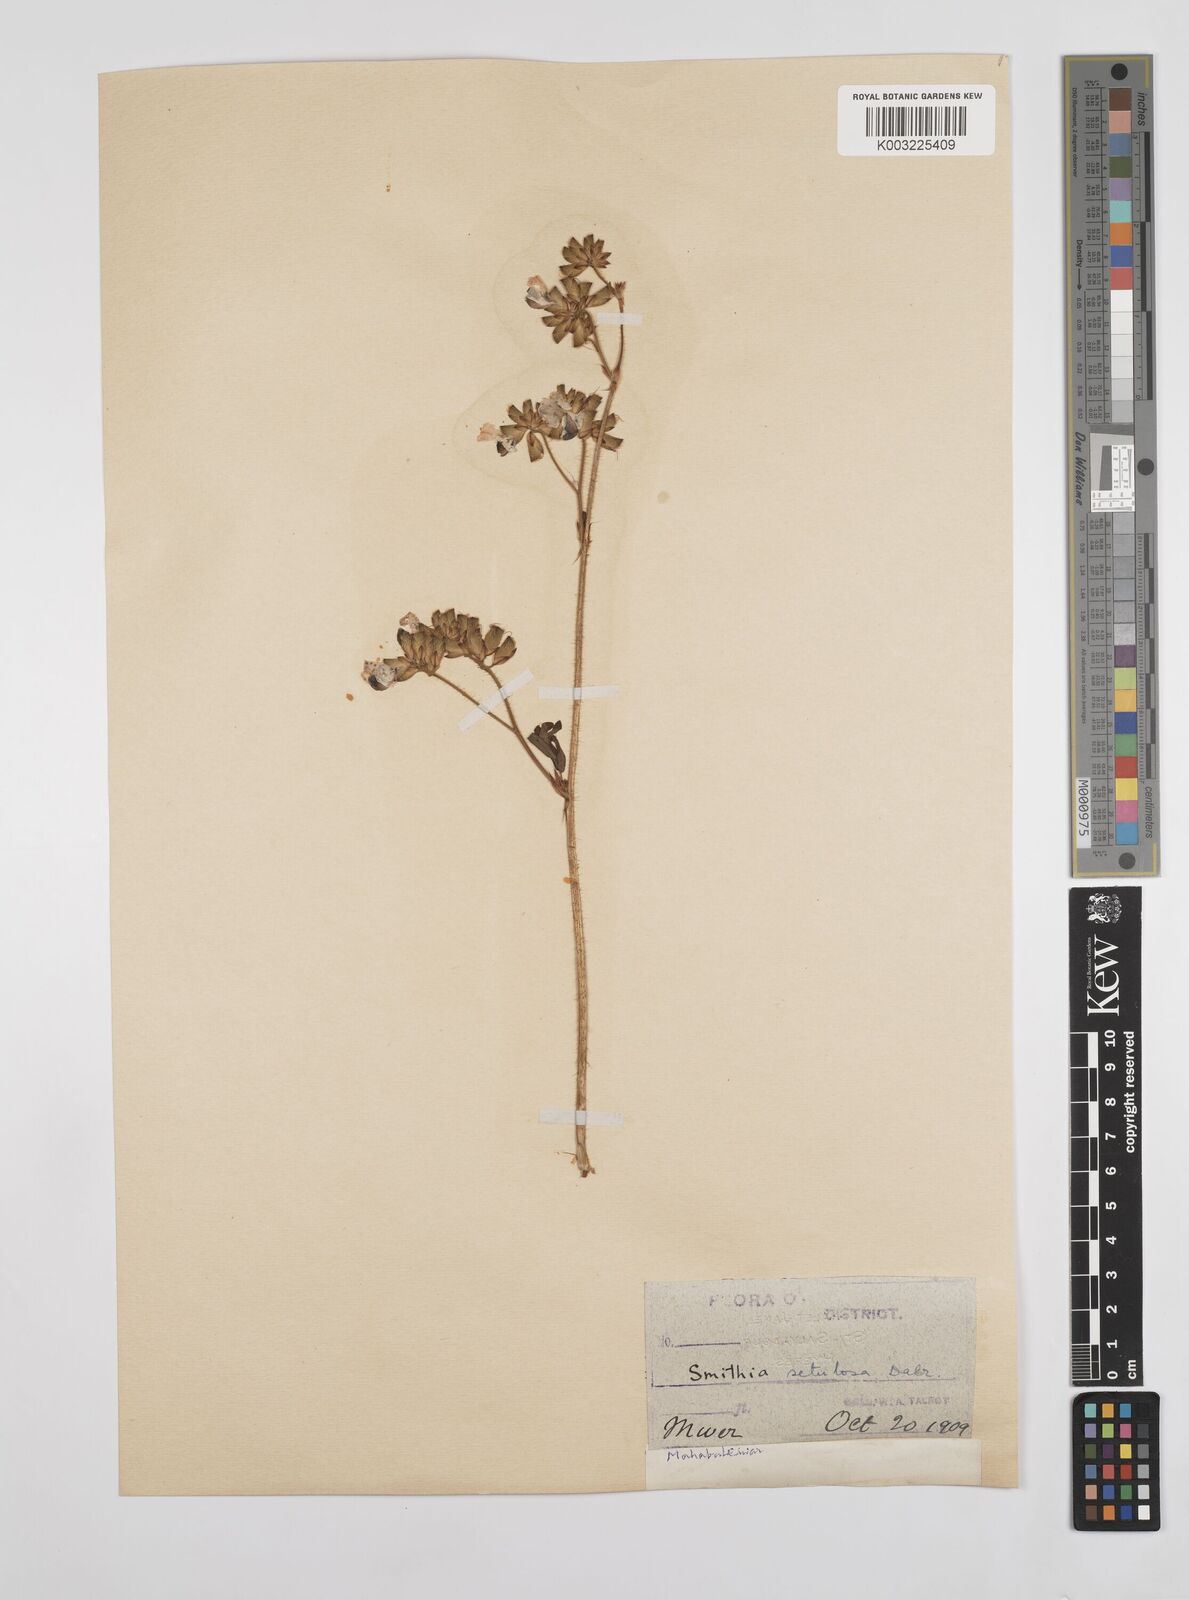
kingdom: Plantae
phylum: Tracheophyta
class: Magnoliopsida
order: Fabales
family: Fabaceae
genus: Smithia
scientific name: Smithia setulosa
